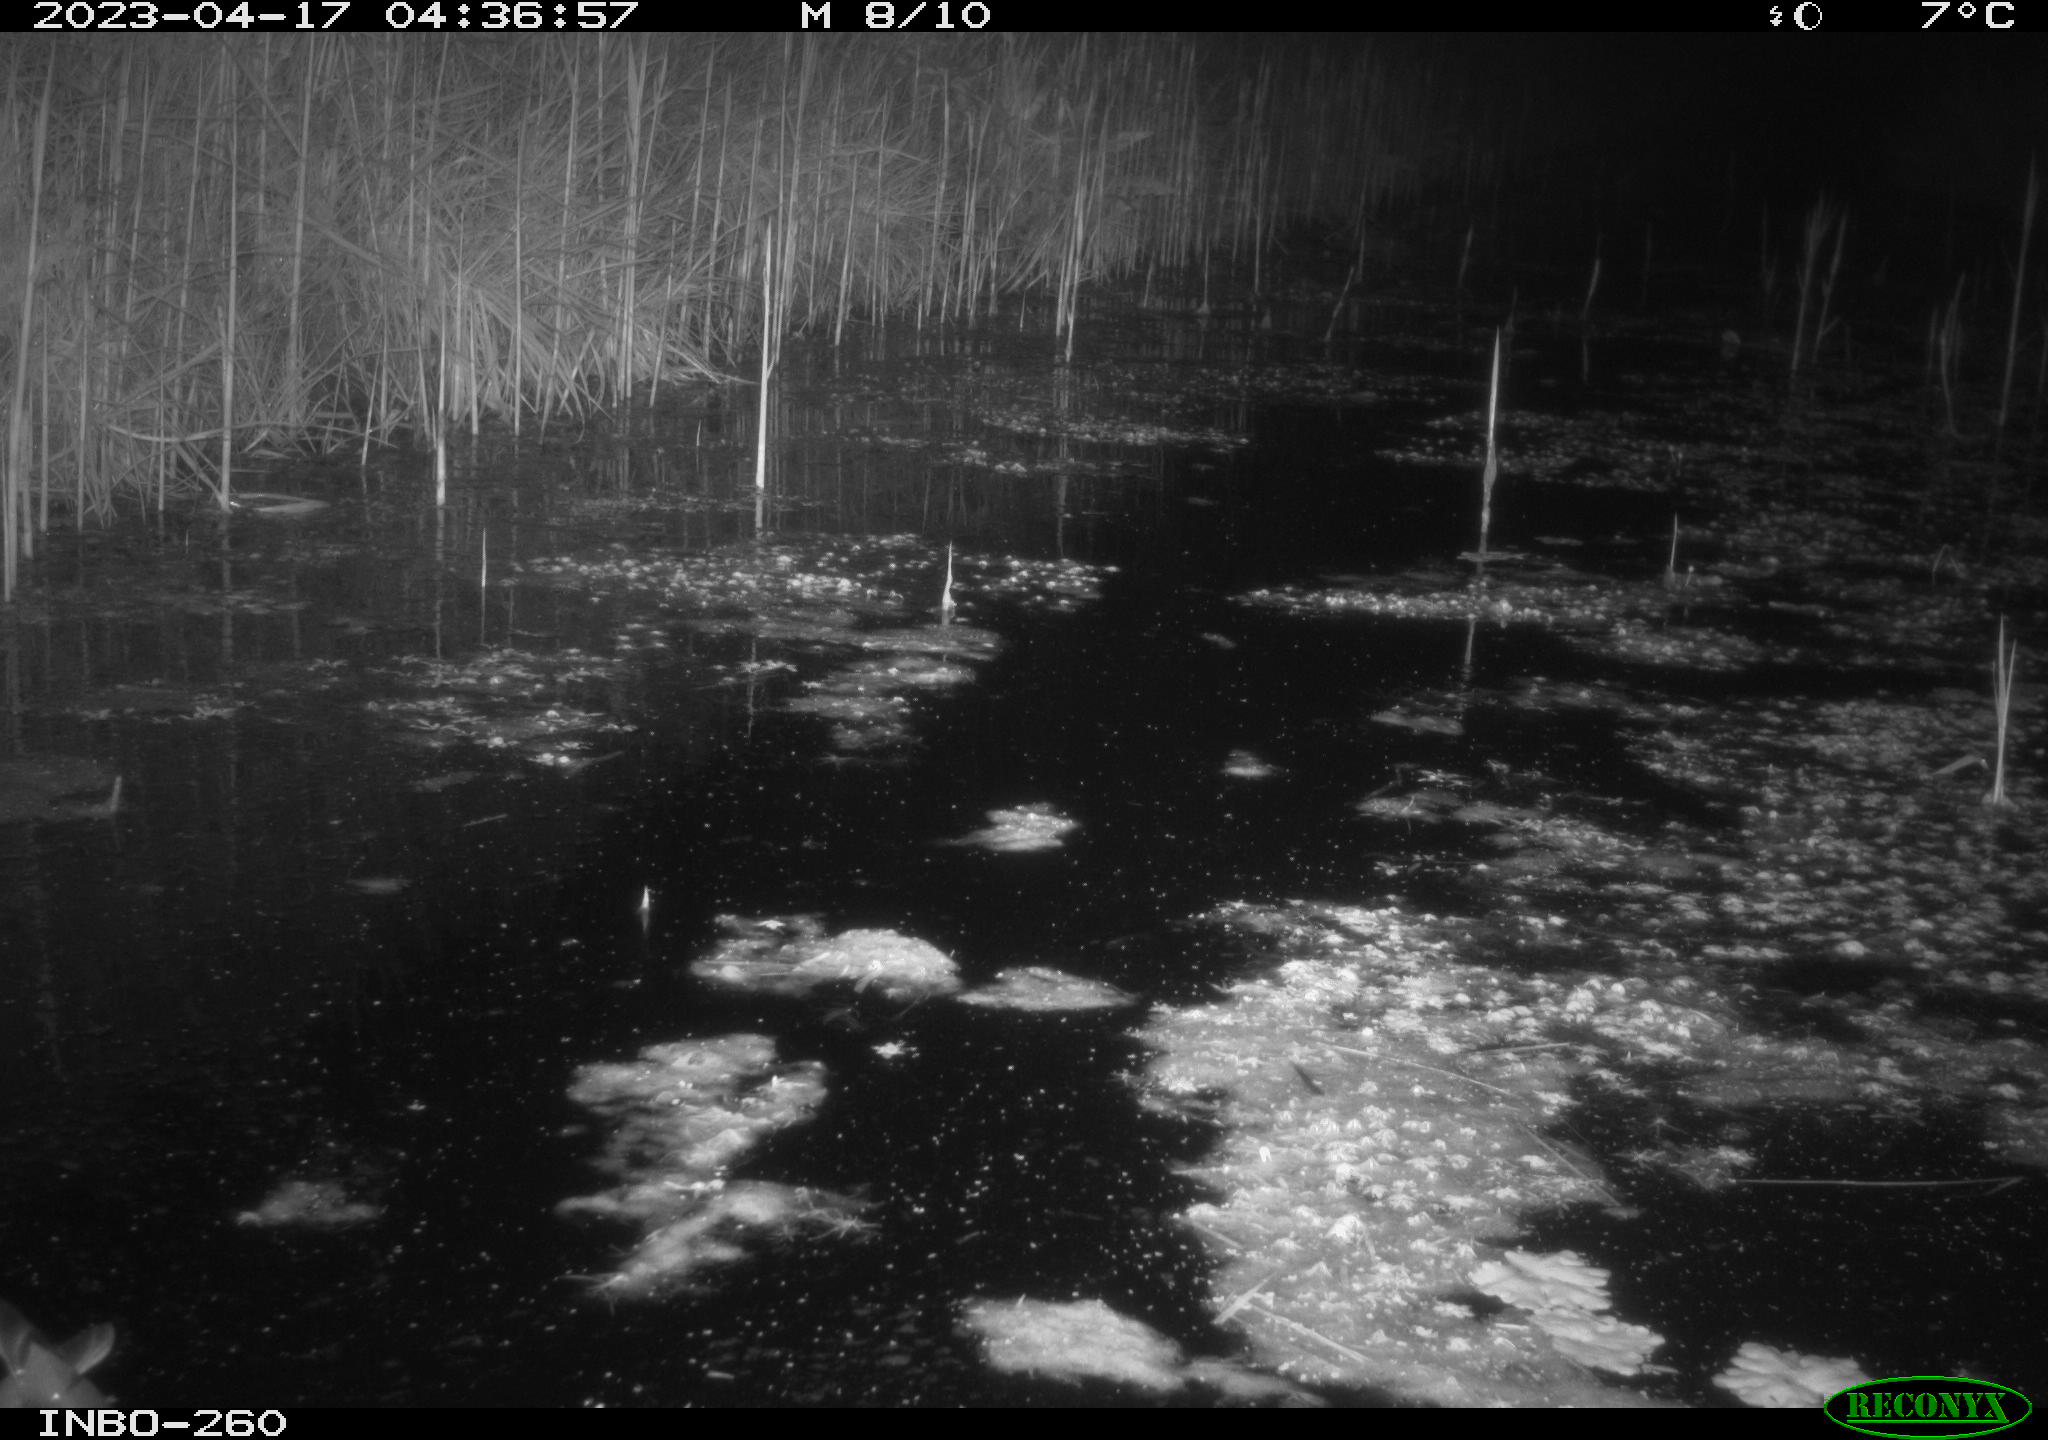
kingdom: Animalia
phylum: Chordata
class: Mammalia
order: Rodentia
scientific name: Rodentia
